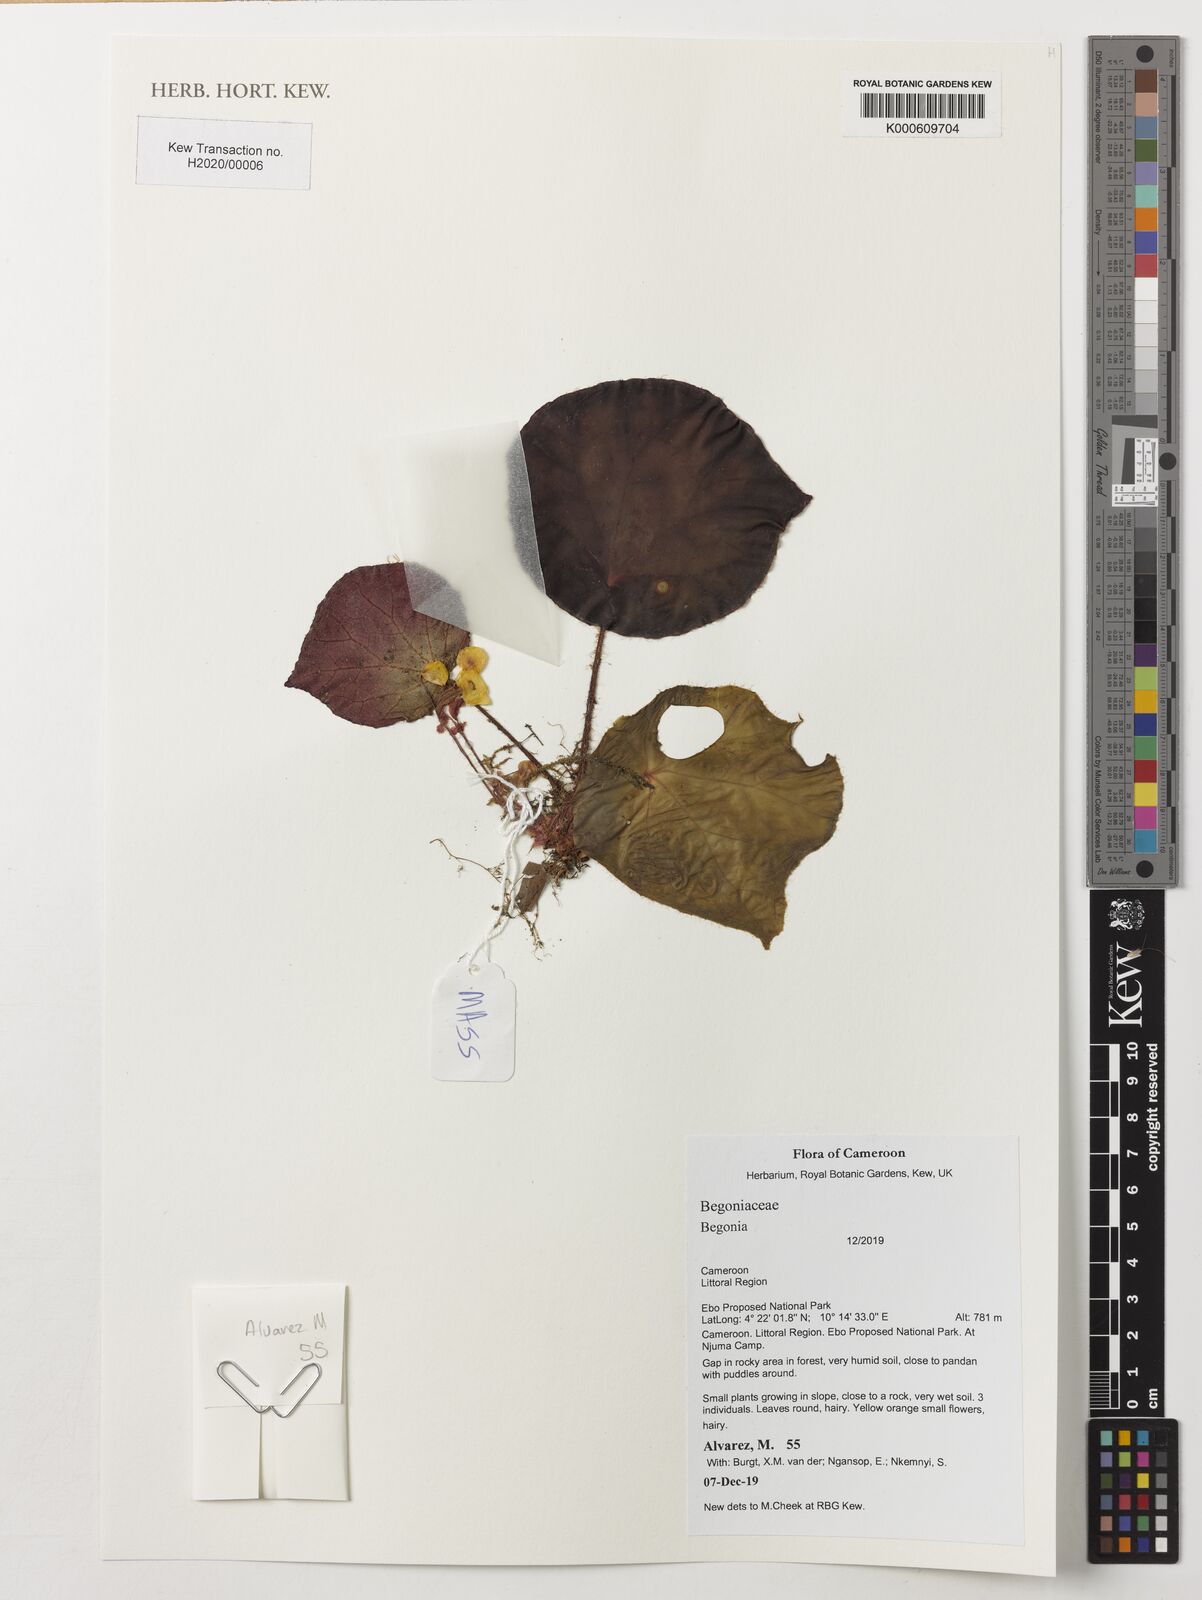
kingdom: Plantae
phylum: Tracheophyta
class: Magnoliopsida
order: Cucurbitales
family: Begoniaceae
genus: Begonia
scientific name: Begonia
